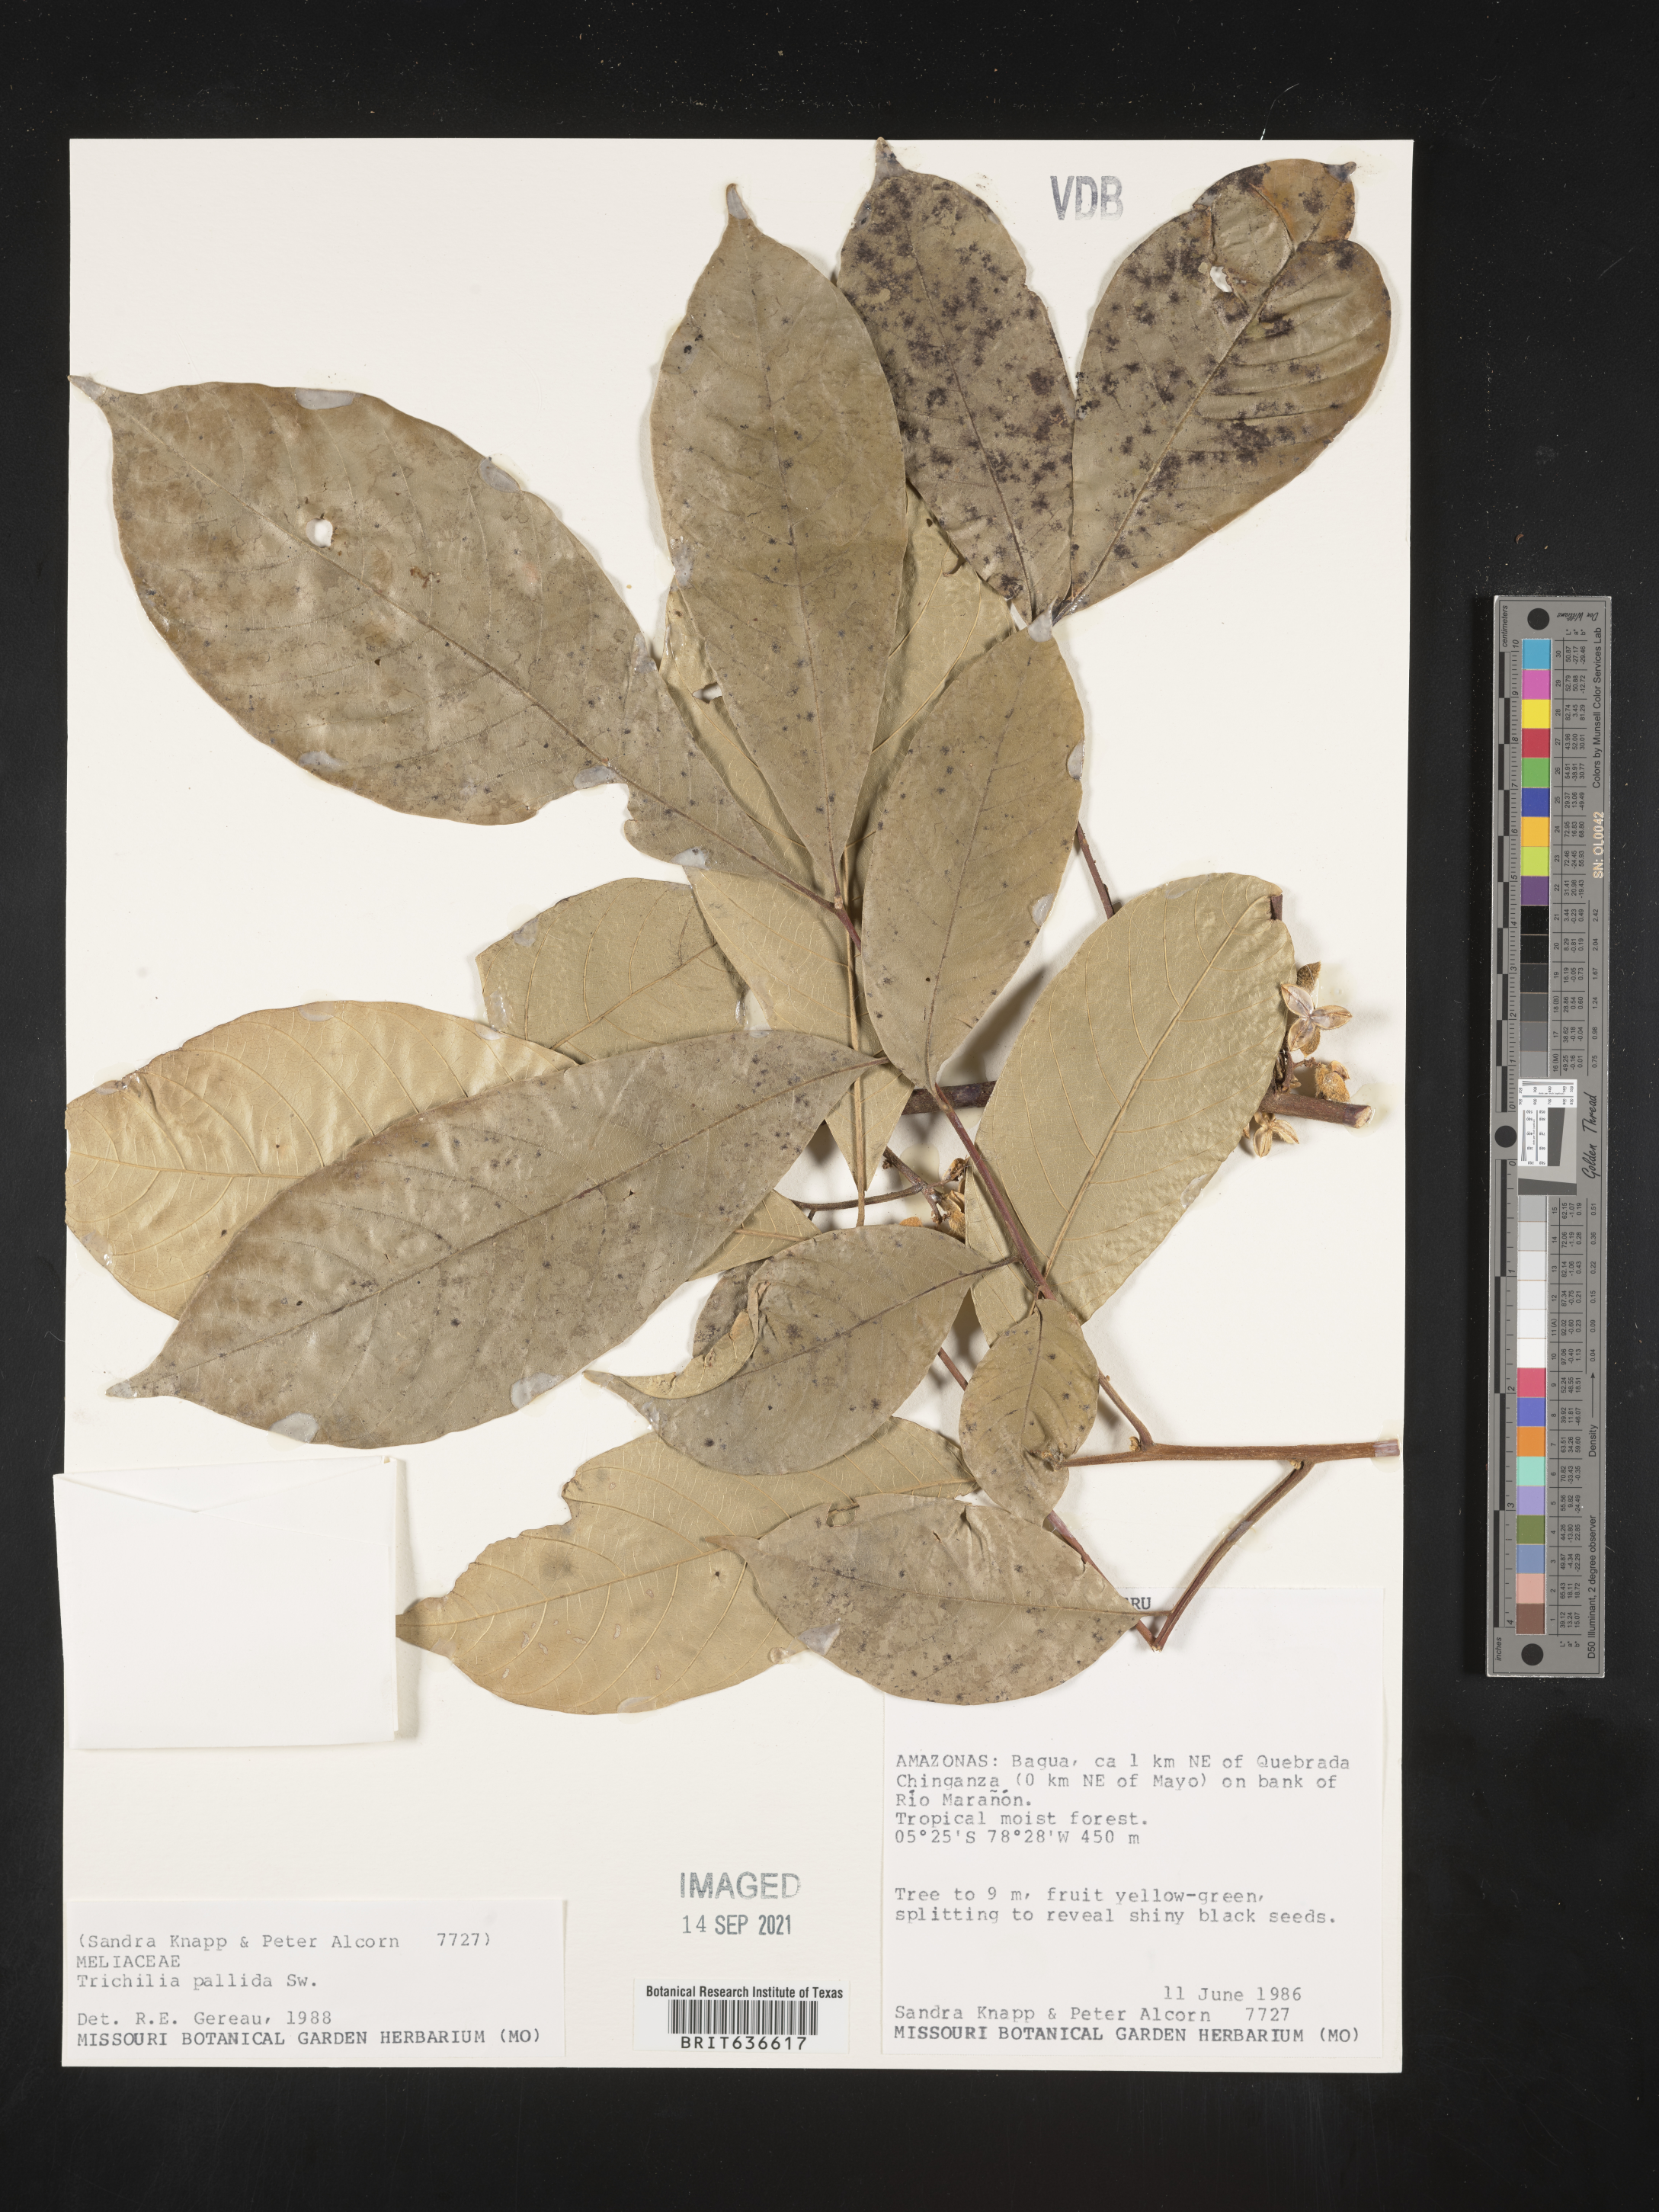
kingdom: Plantae
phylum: Tracheophyta
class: Magnoliopsida
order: Sapindales
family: Meliaceae
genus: Trichilia
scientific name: Trichilia
